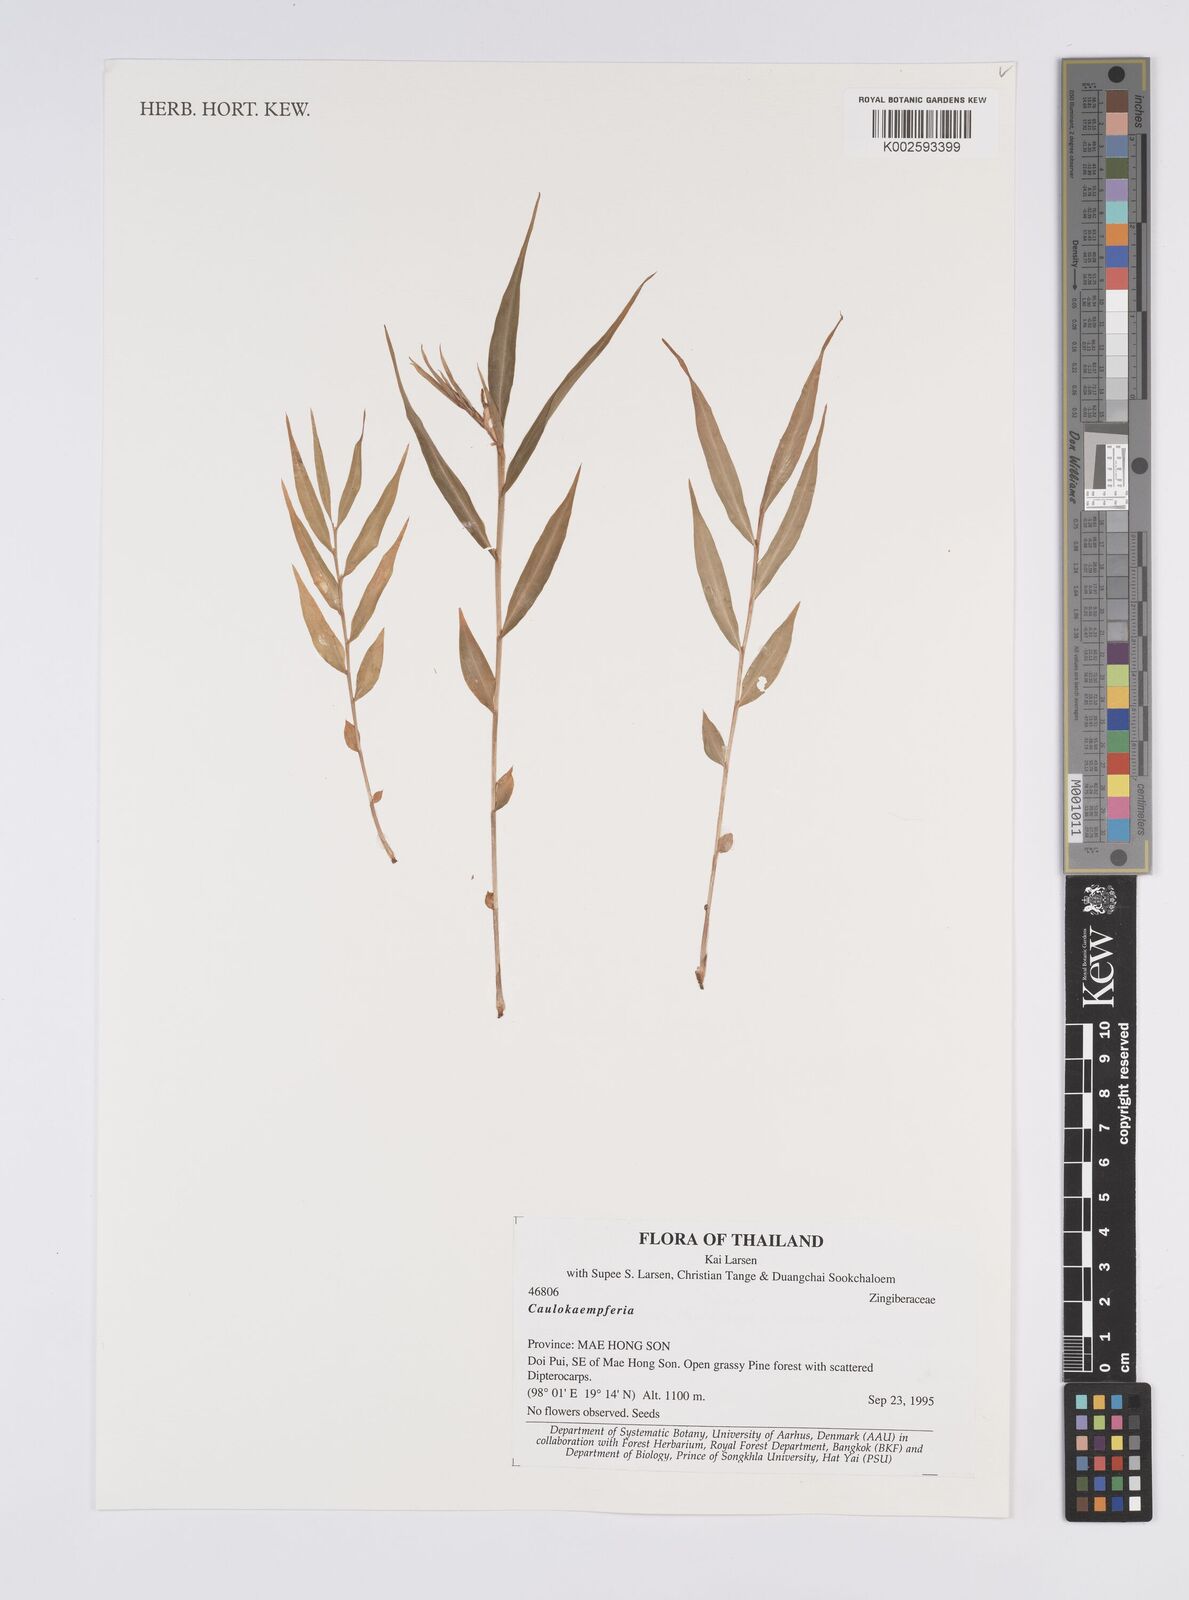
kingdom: Plantae
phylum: Tracheophyta
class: Liliopsida
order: Zingiberales
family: Zingiberaceae
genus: Caulokaempferia
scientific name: Caulokaempferia
